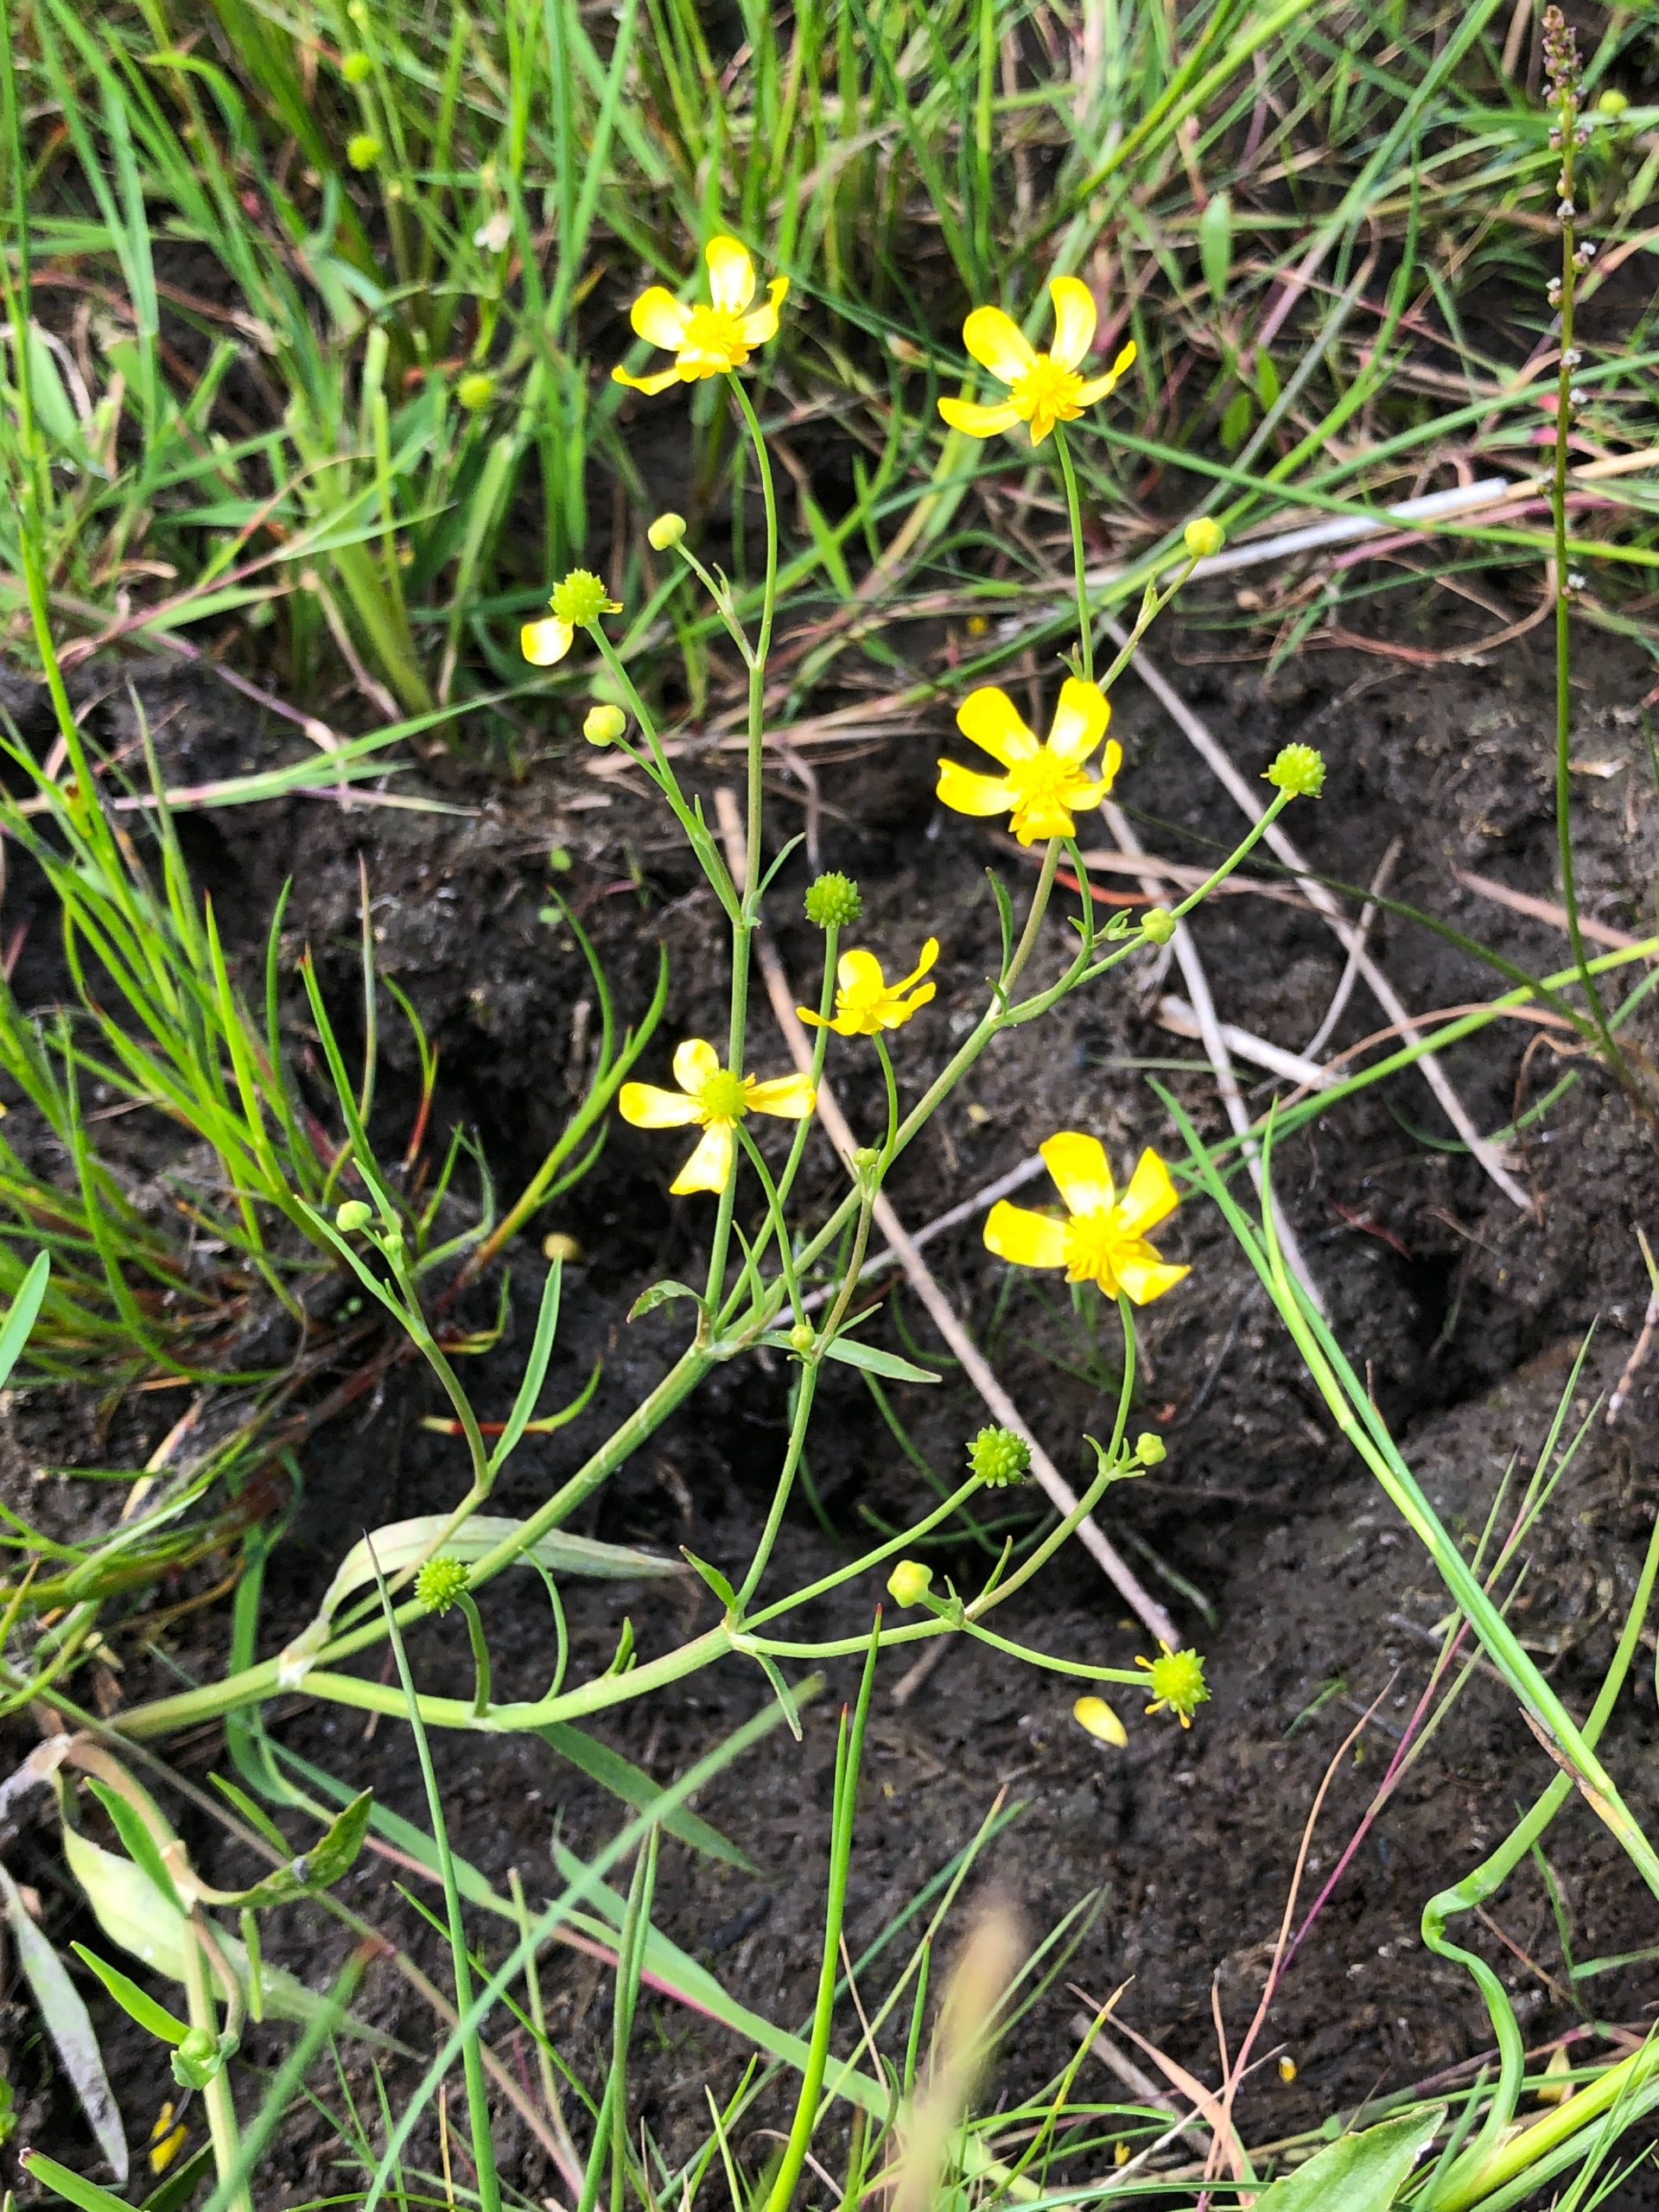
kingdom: Plantae
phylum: Tracheophyta
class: Magnoliopsida
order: Ranunculales
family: Ranunculaceae
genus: Ranunculus
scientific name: Ranunculus flammula
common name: Kær-ranunkel
